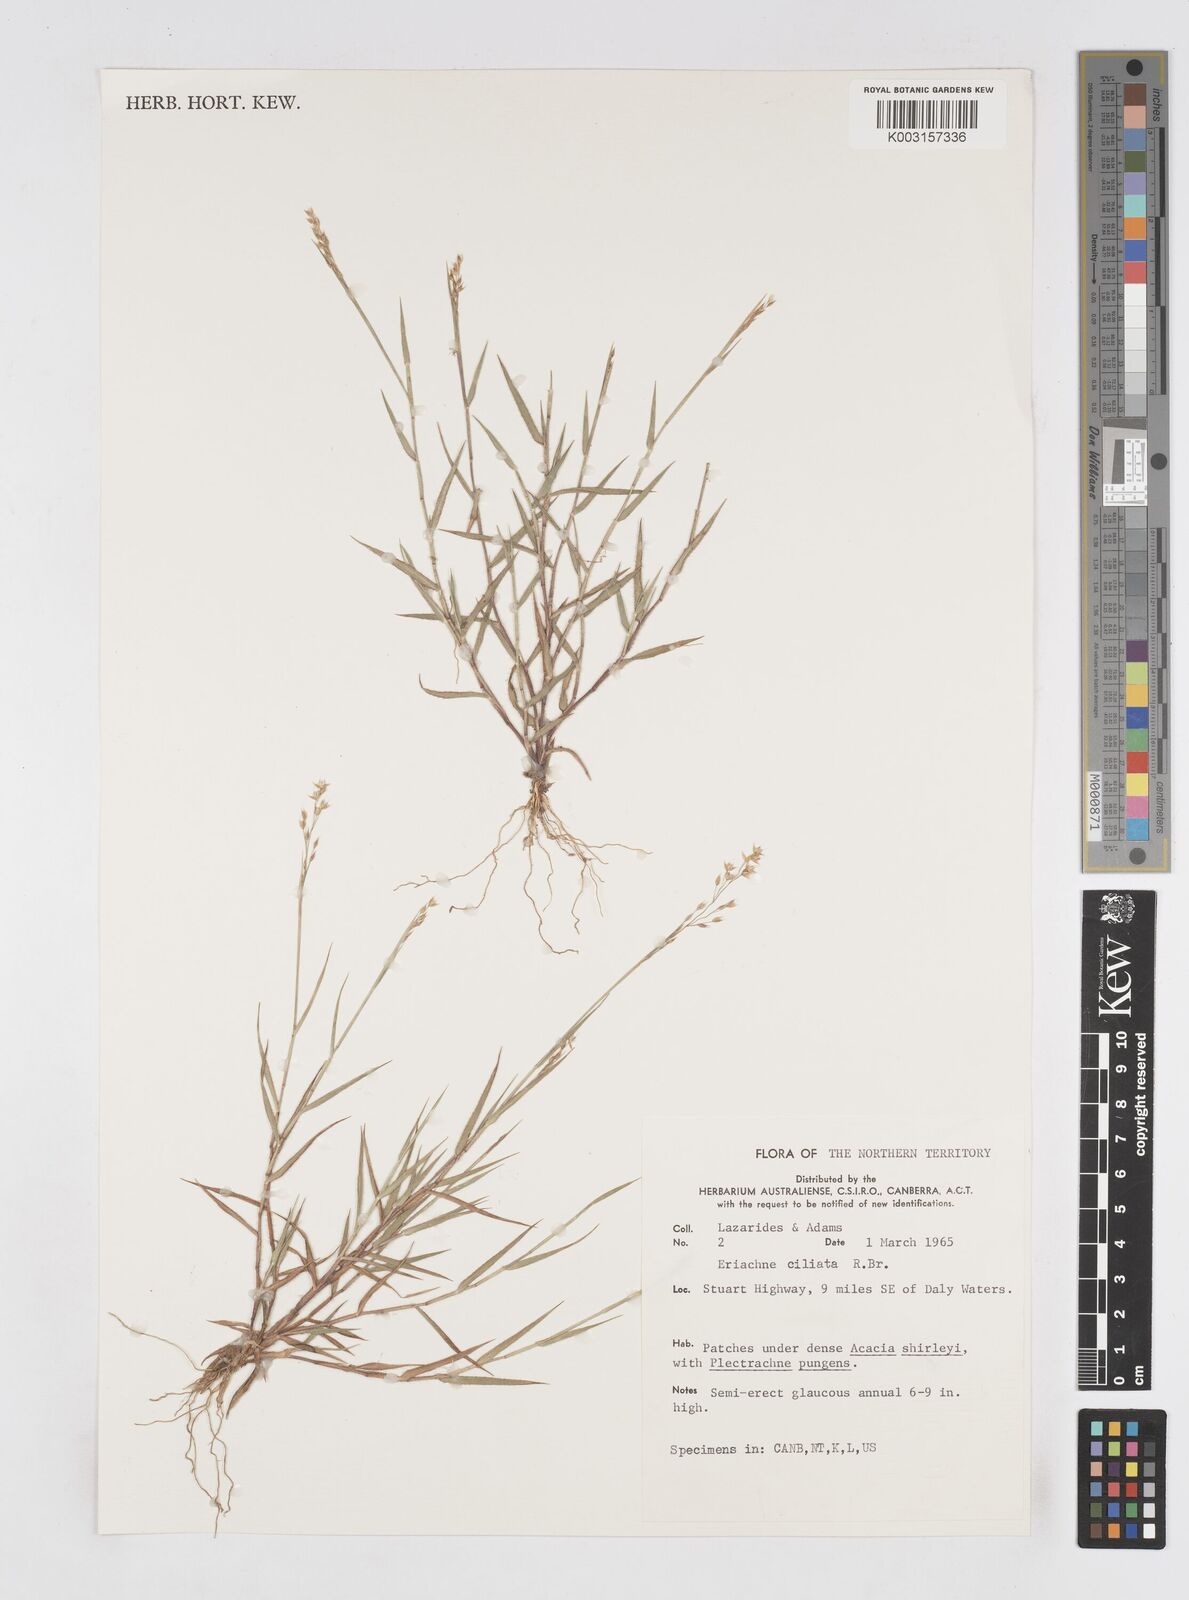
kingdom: Plantae
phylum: Tracheophyta
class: Liliopsida
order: Poales
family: Poaceae
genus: Eriachne
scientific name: Eriachne ciliata
